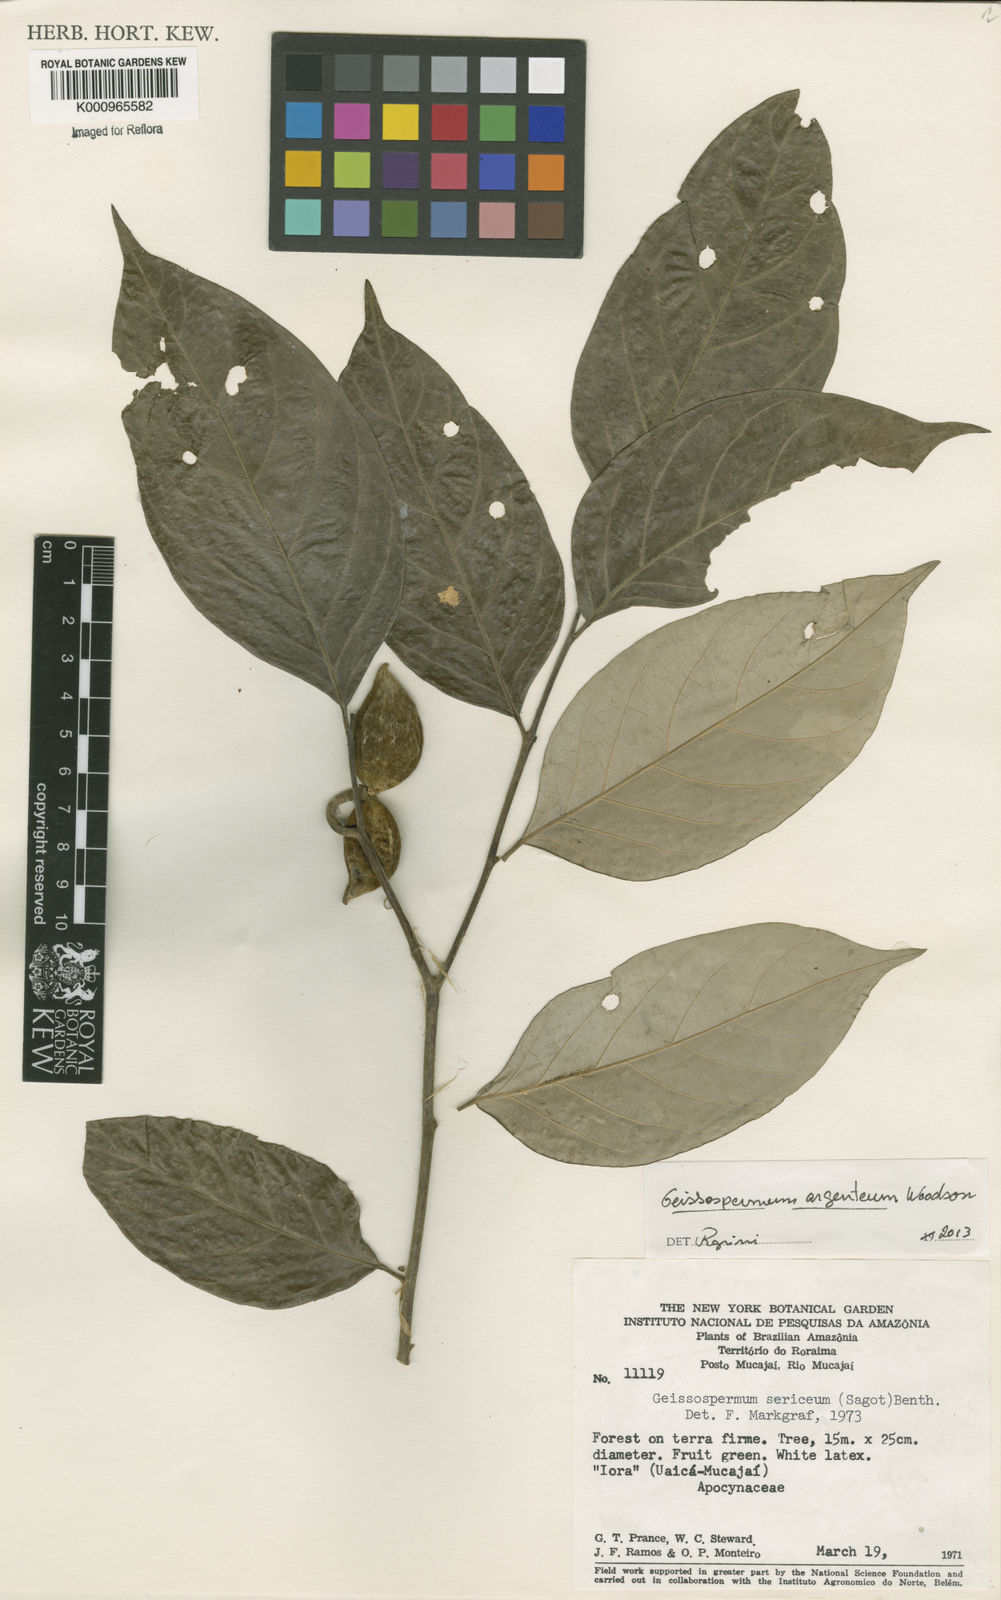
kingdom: Plantae
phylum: Tracheophyta
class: Magnoliopsida
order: Gentianales
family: Apocynaceae
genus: Geissospermum
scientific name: Geissospermum argenteum
